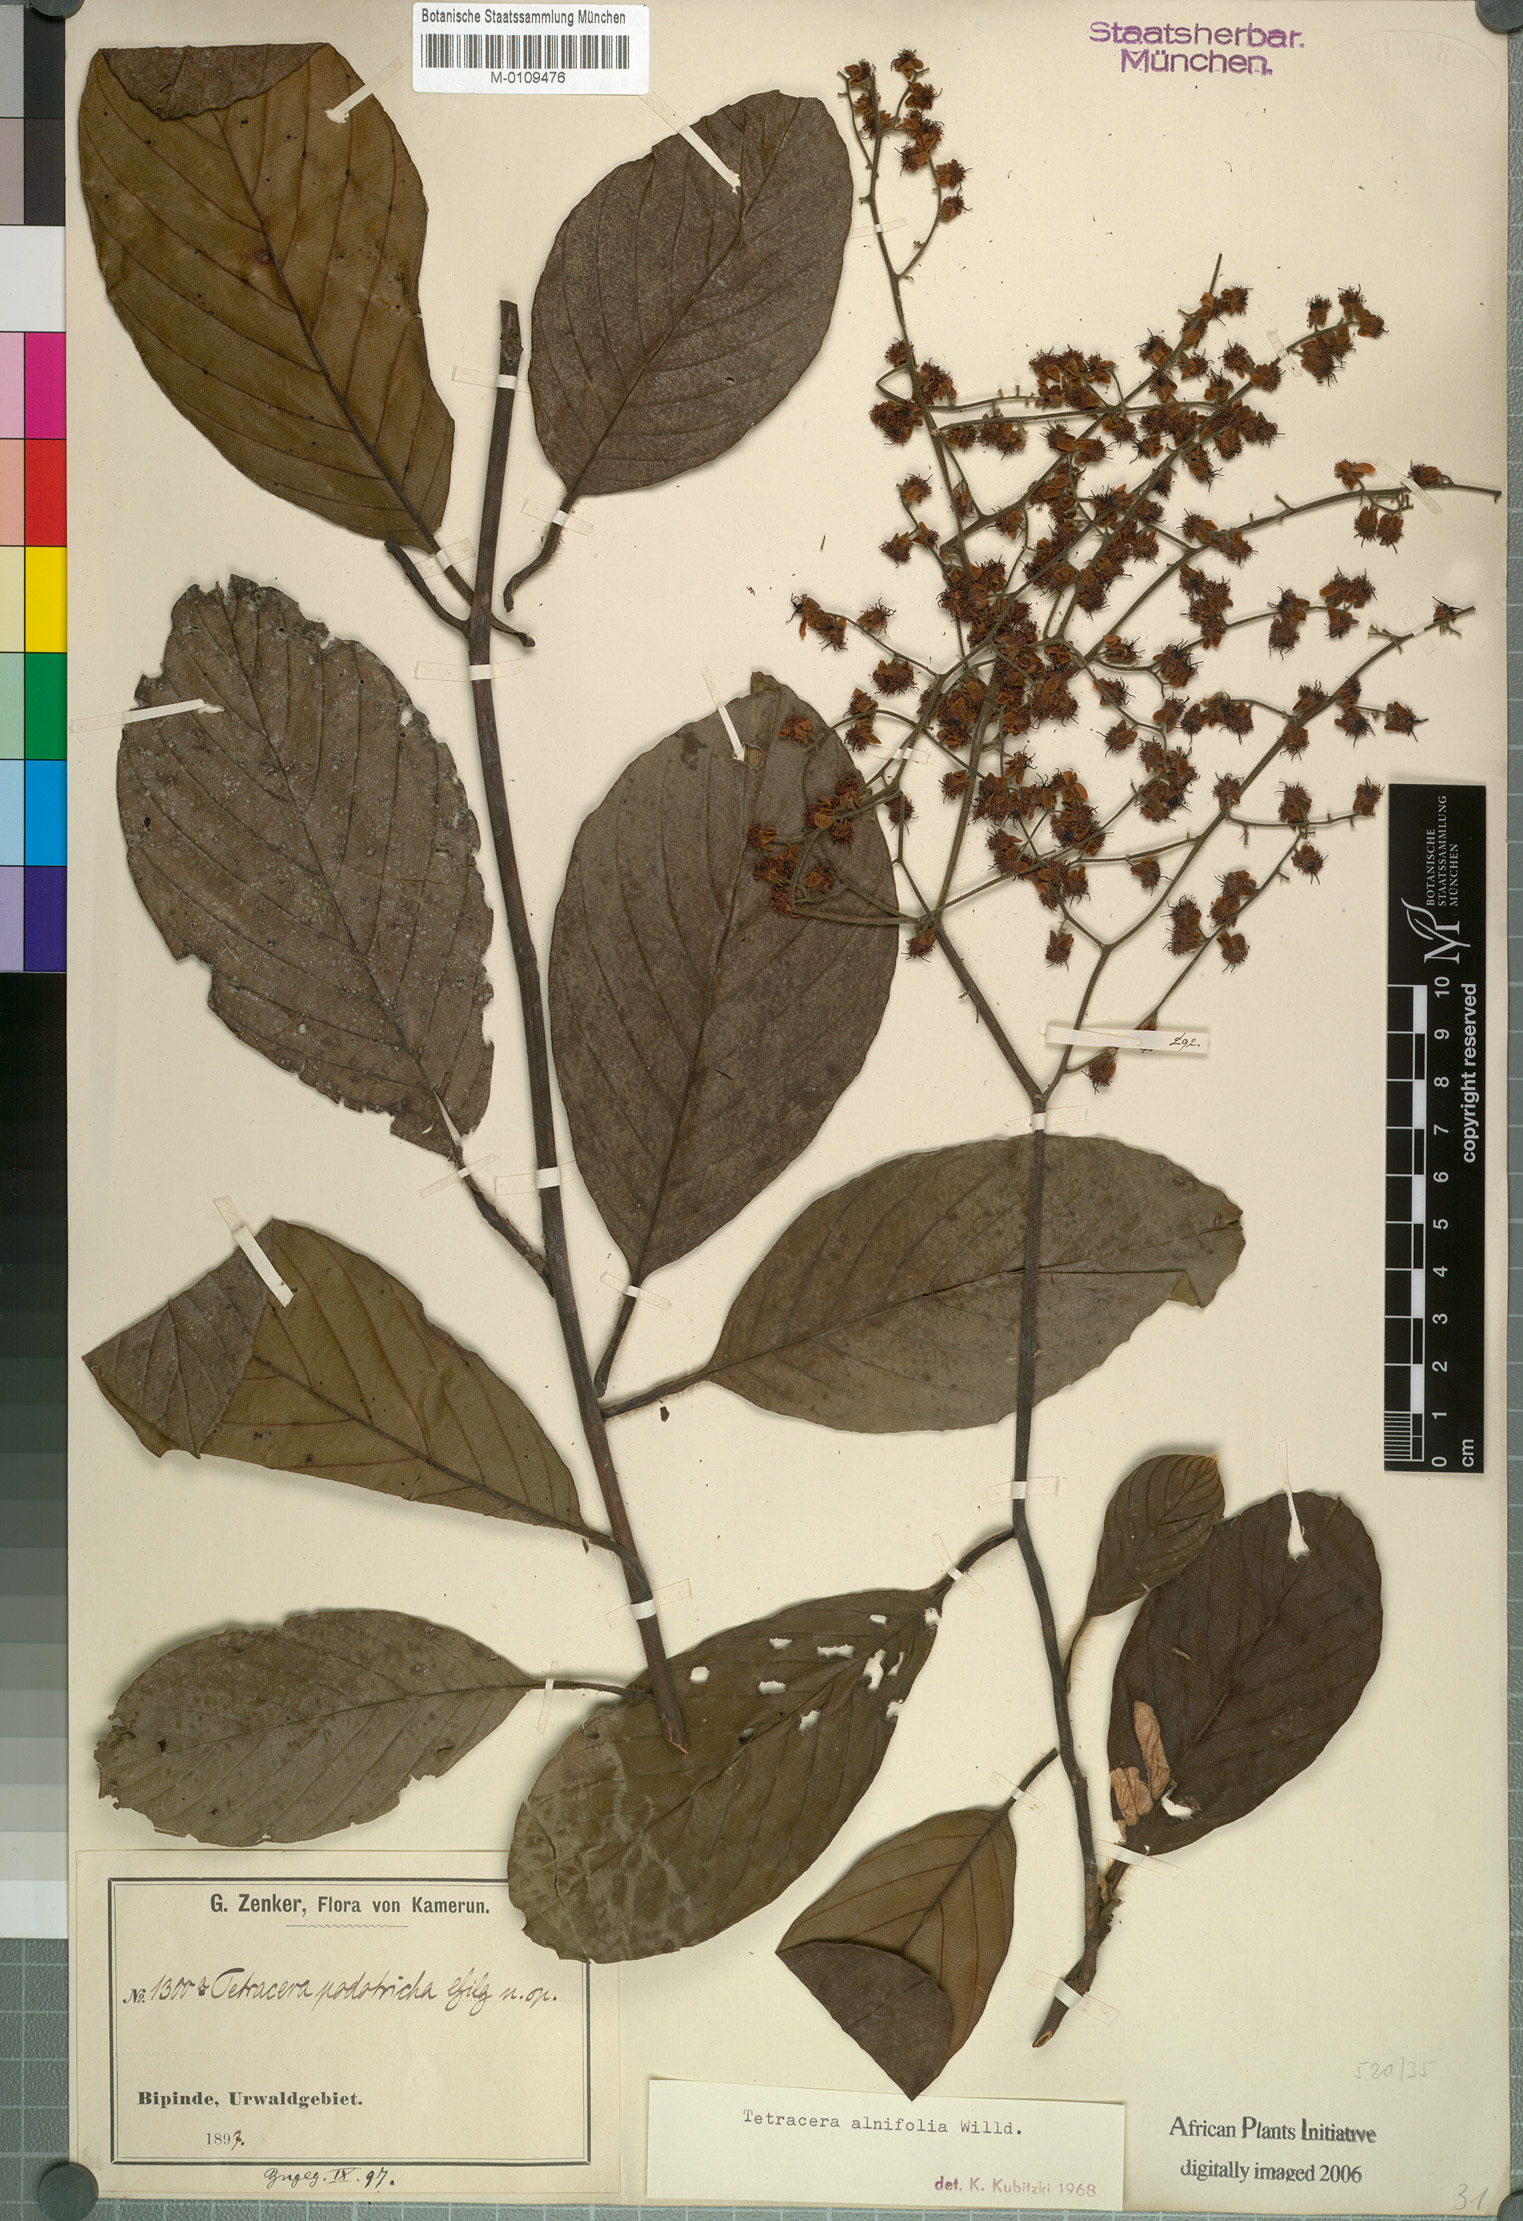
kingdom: Plantae
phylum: Tracheophyta
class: Magnoliopsida
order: Dilleniales
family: Dilleniaceae
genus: Tetracera
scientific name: Tetracera alnifolia
